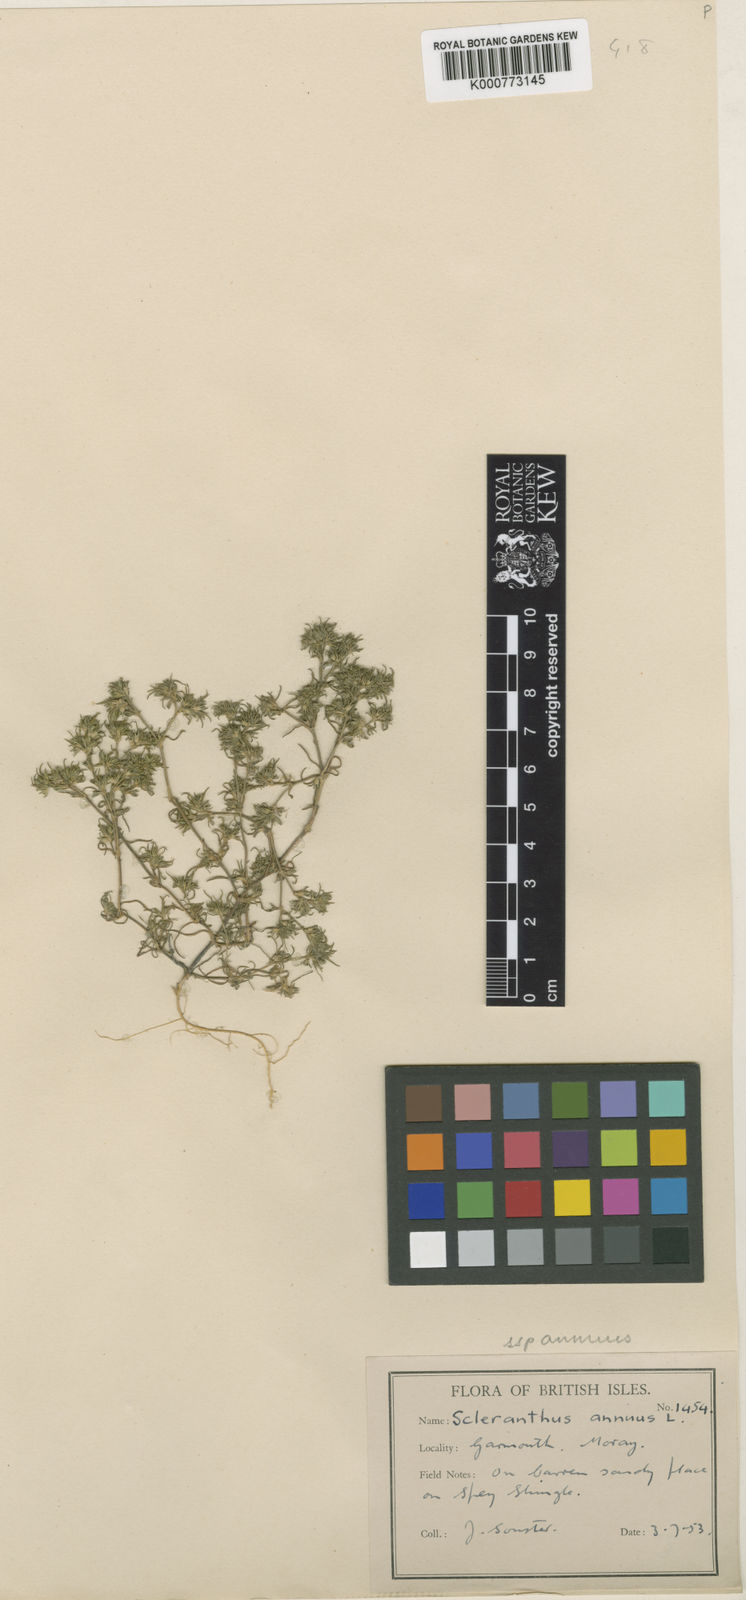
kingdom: Plantae
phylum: Tracheophyta
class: Magnoliopsida
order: Caryophyllales
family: Caryophyllaceae
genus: Scleranthus
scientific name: Scleranthus annuus
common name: Annual knawel
